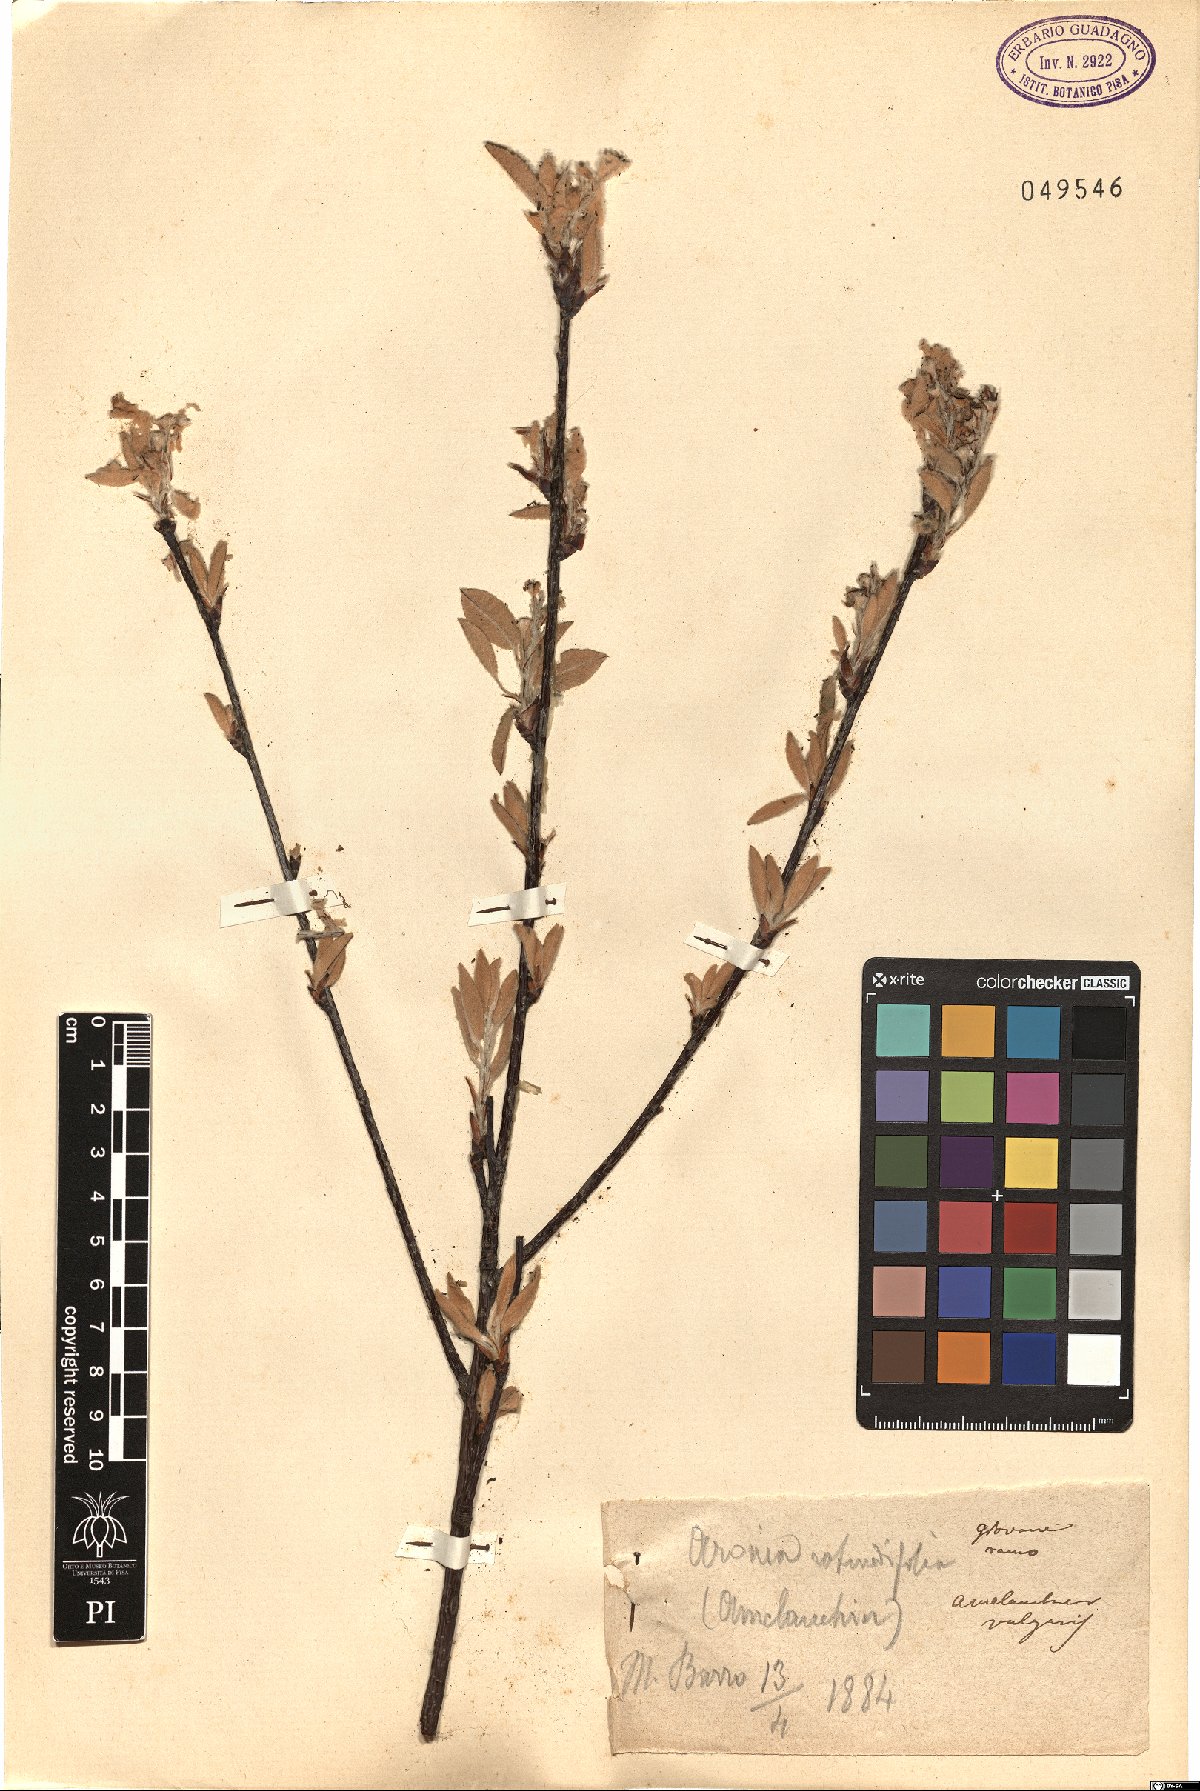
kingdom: Plantae
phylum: Tracheophyta
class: Magnoliopsida
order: Rosales
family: Rosaceae
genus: Amelanchier
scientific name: Amelanchier ovalis
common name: Serviceberry
